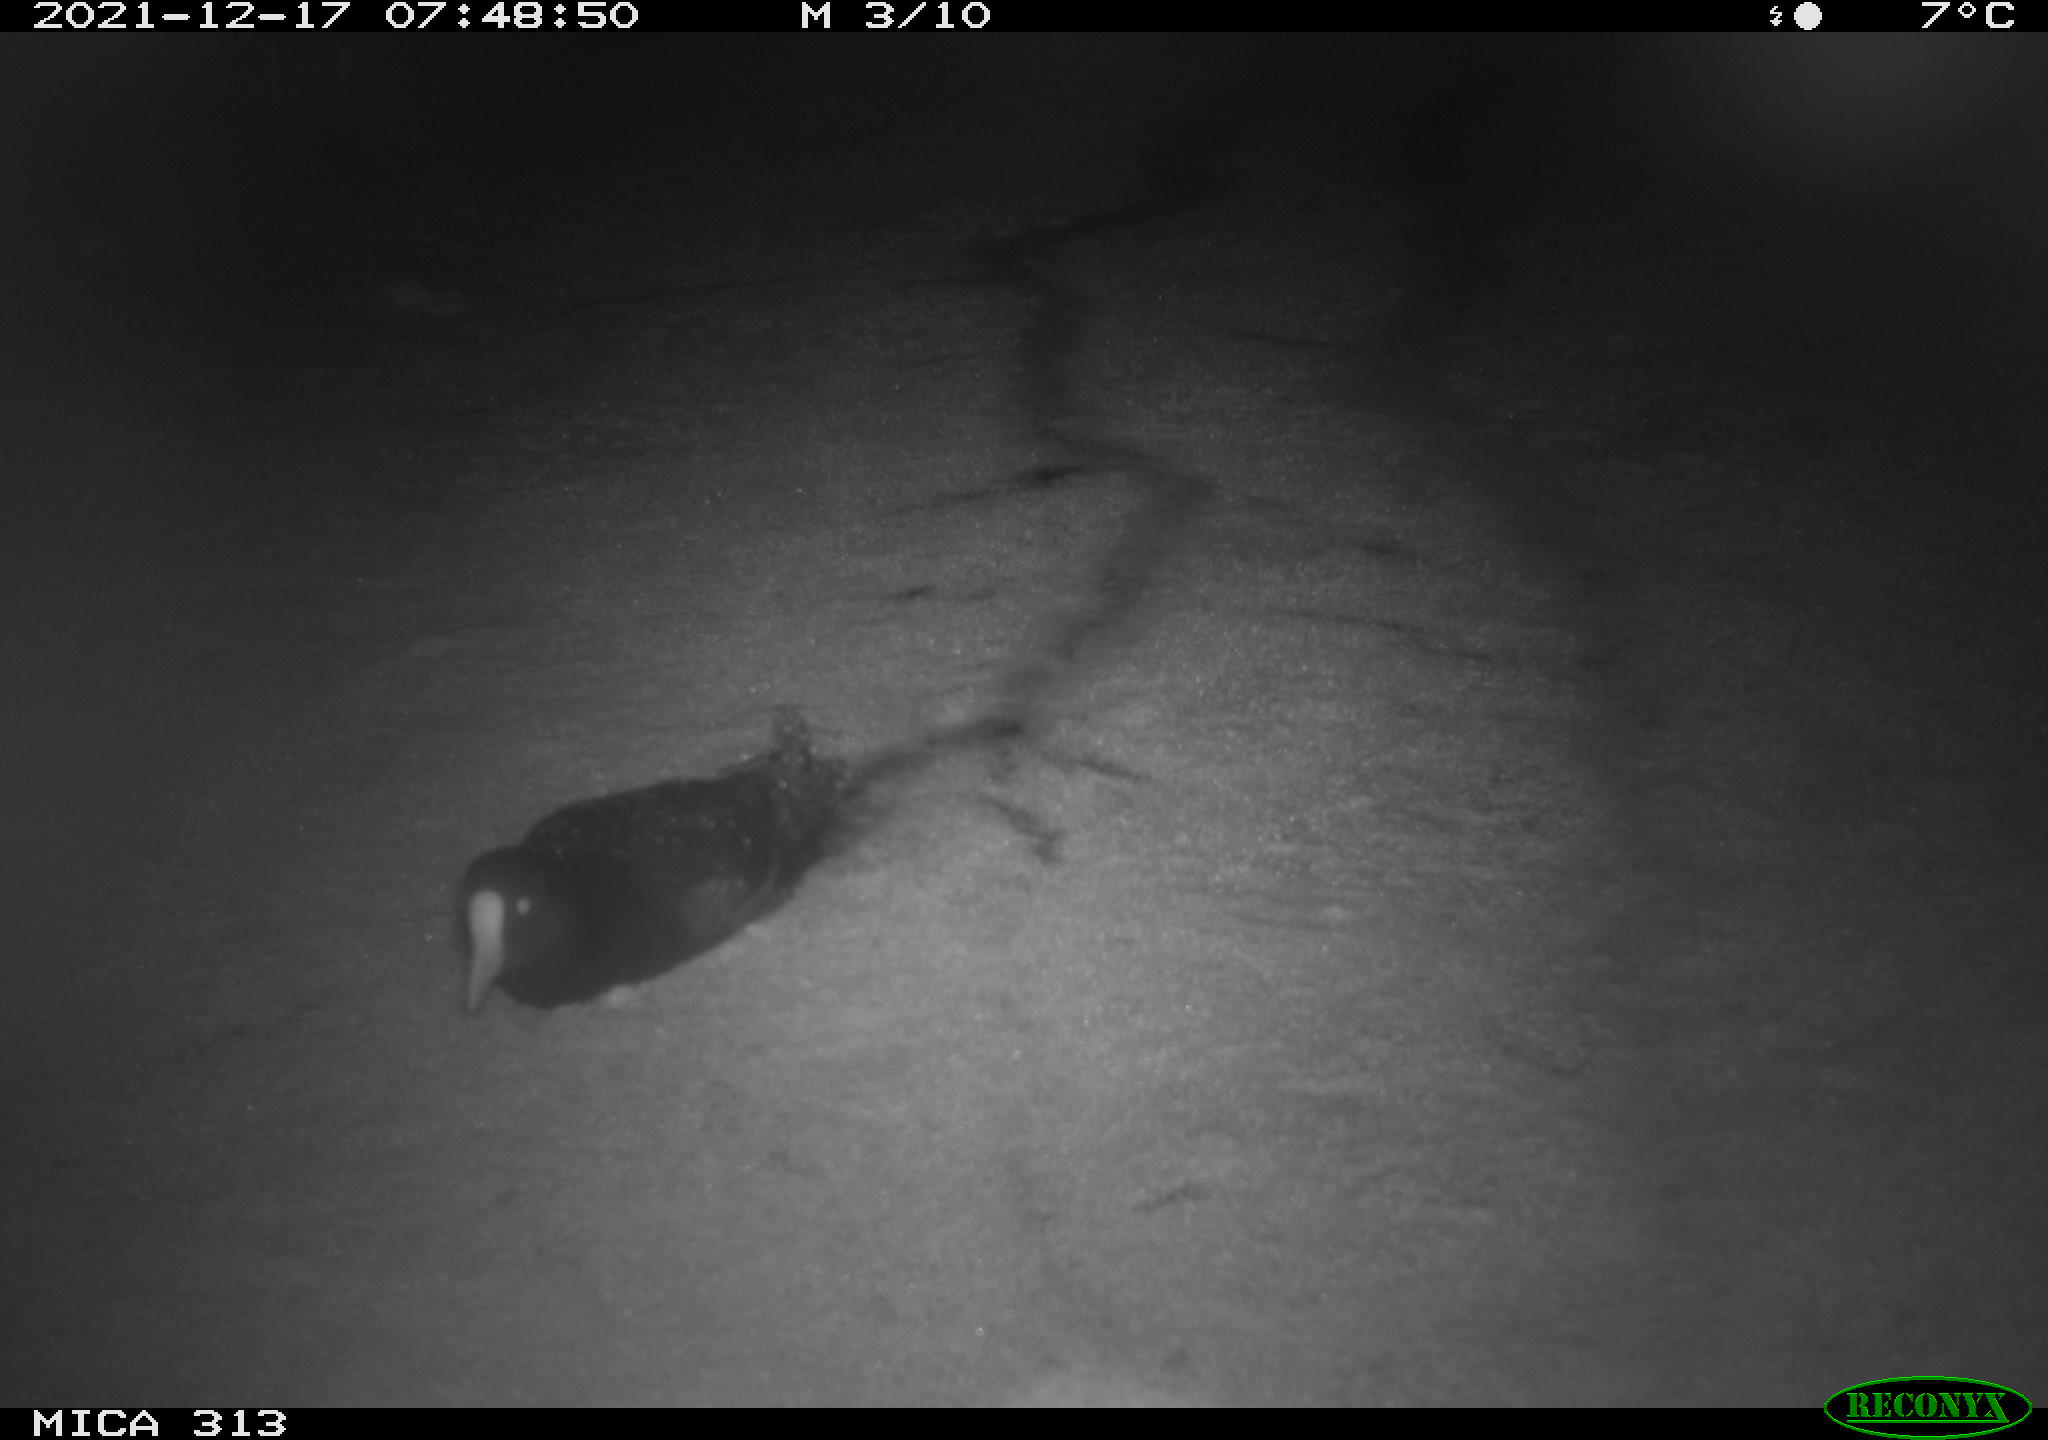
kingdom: Animalia
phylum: Chordata
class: Aves
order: Gruiformes
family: Rallidae
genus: Fulica
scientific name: Fulica atra
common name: Eurasian coot
